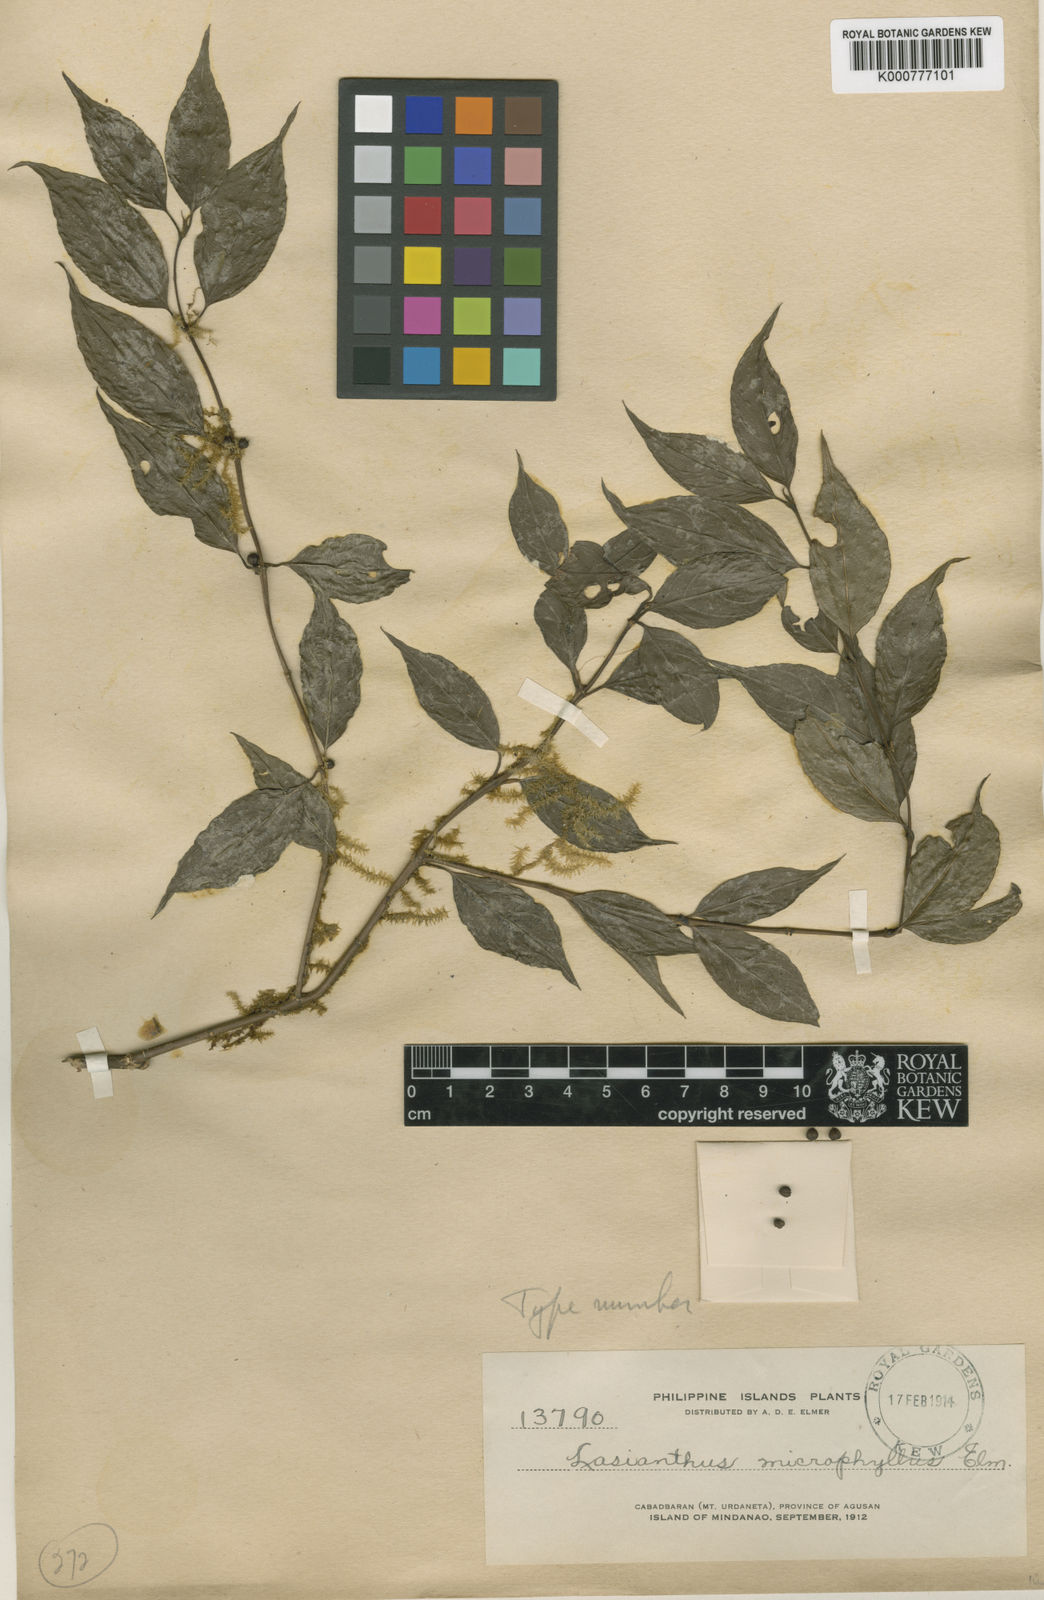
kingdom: Plantae
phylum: Tracheophyta
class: Magnoliopsida
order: Gentianales
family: Rubiaceae
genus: Lasianthus
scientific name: Lasianthus fordii
